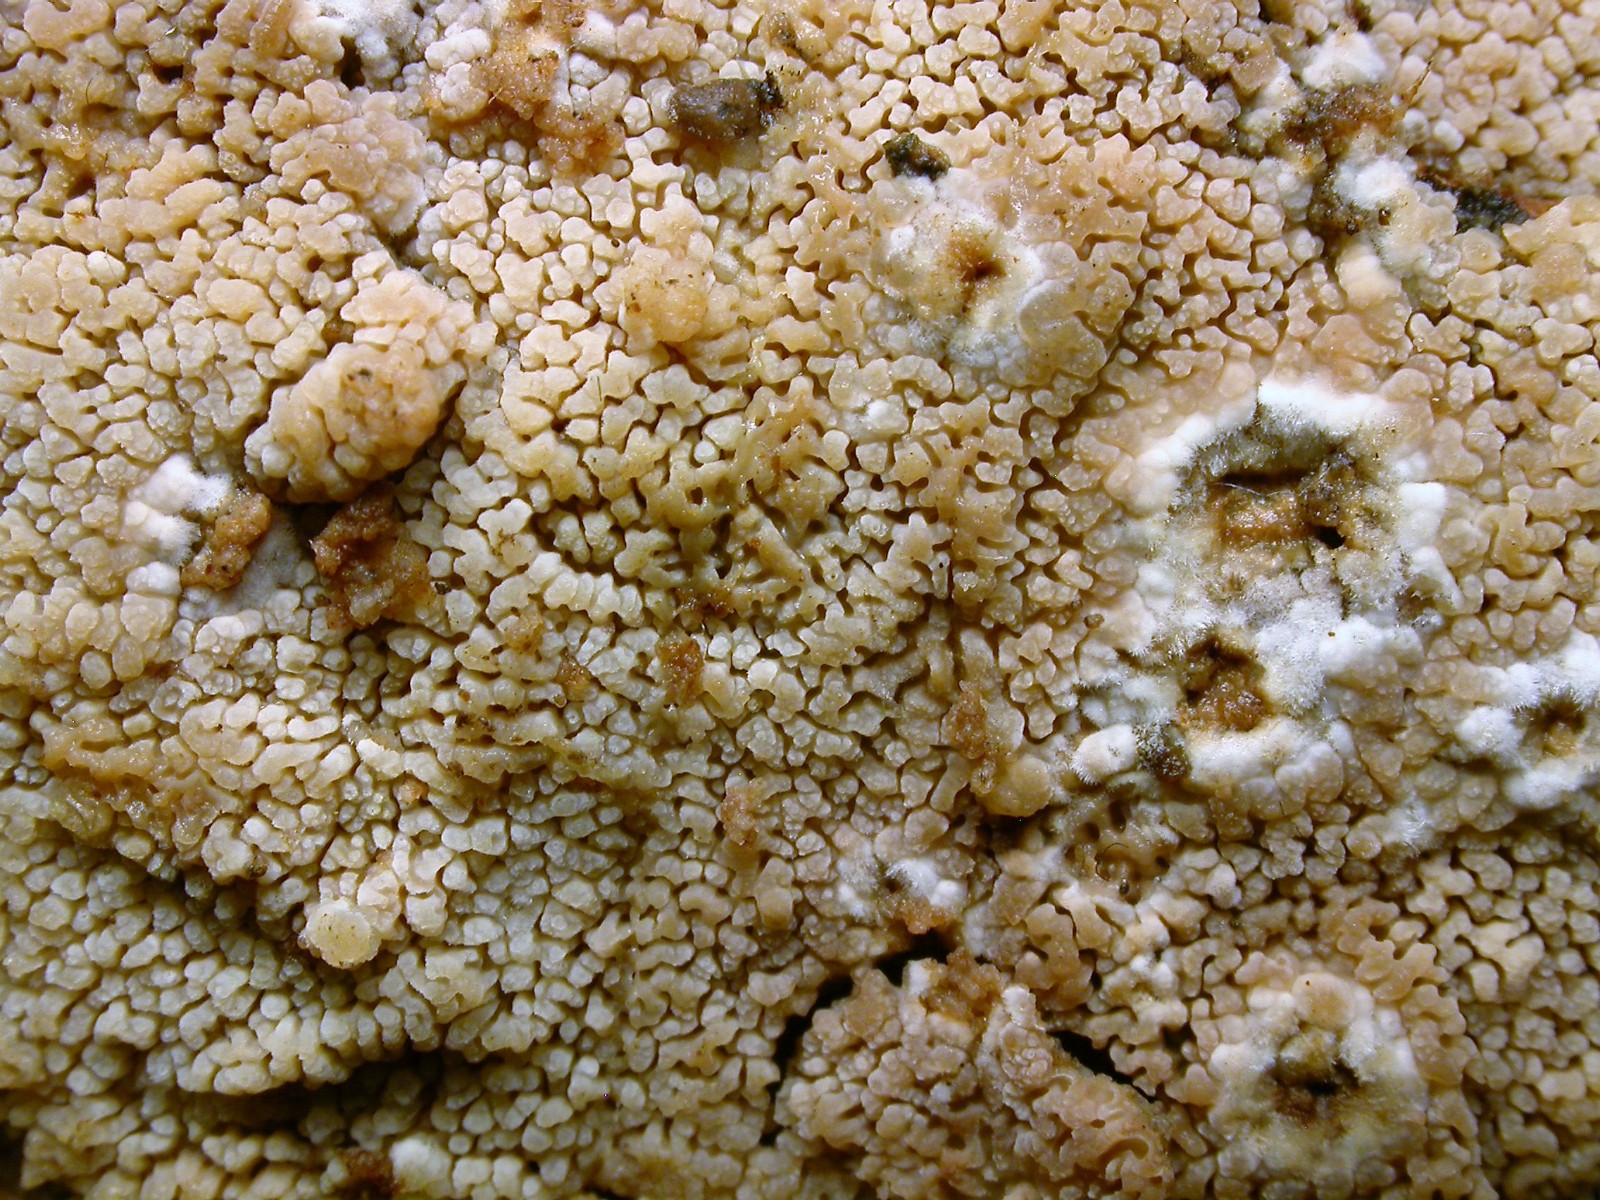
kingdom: Fungi
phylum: Basidiomycota
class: Agaricomycetes
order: Polyporales
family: Irpicaceae
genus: Crystallicutis
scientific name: Crystallicutis serpens
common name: gråviolet barkhinde
